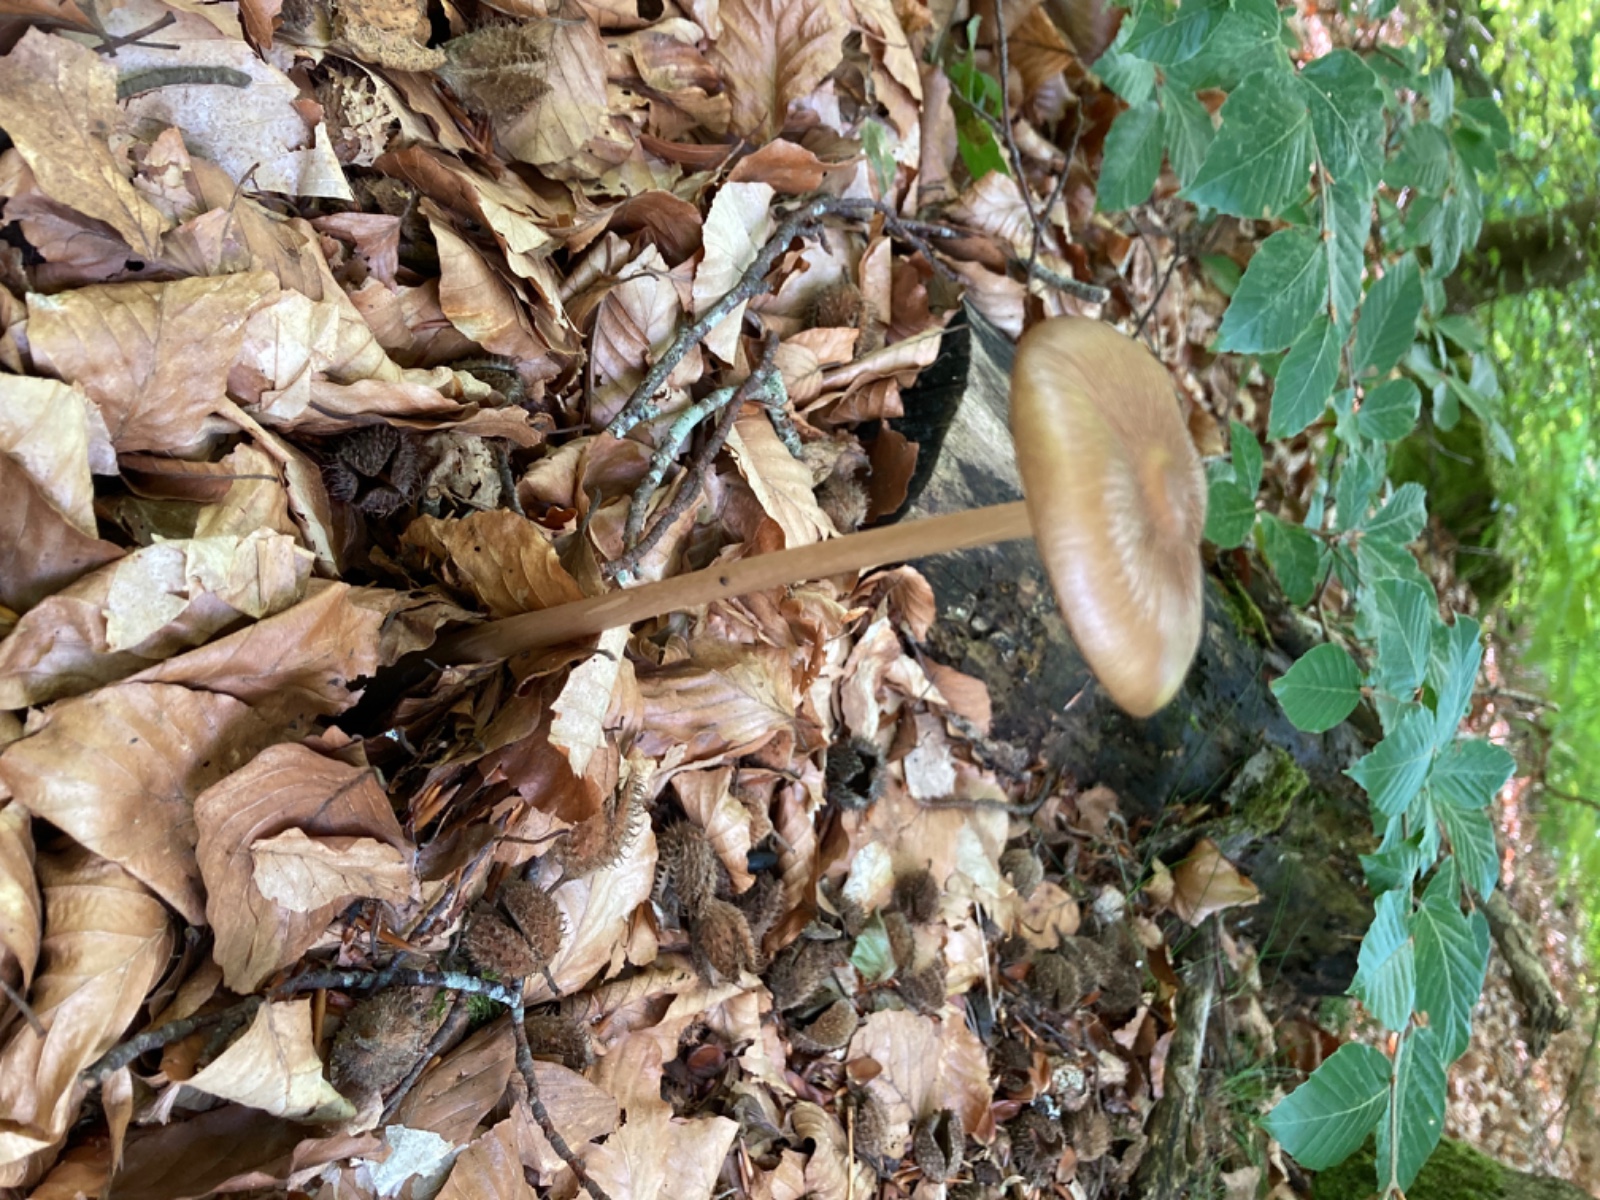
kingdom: Fungi
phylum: Basidiomycota
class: Agaricomycetes
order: Agaricales
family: Physalacriaceae
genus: Hymenopellis
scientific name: Hymenopellis radicata
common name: almindelig pælerodshat
